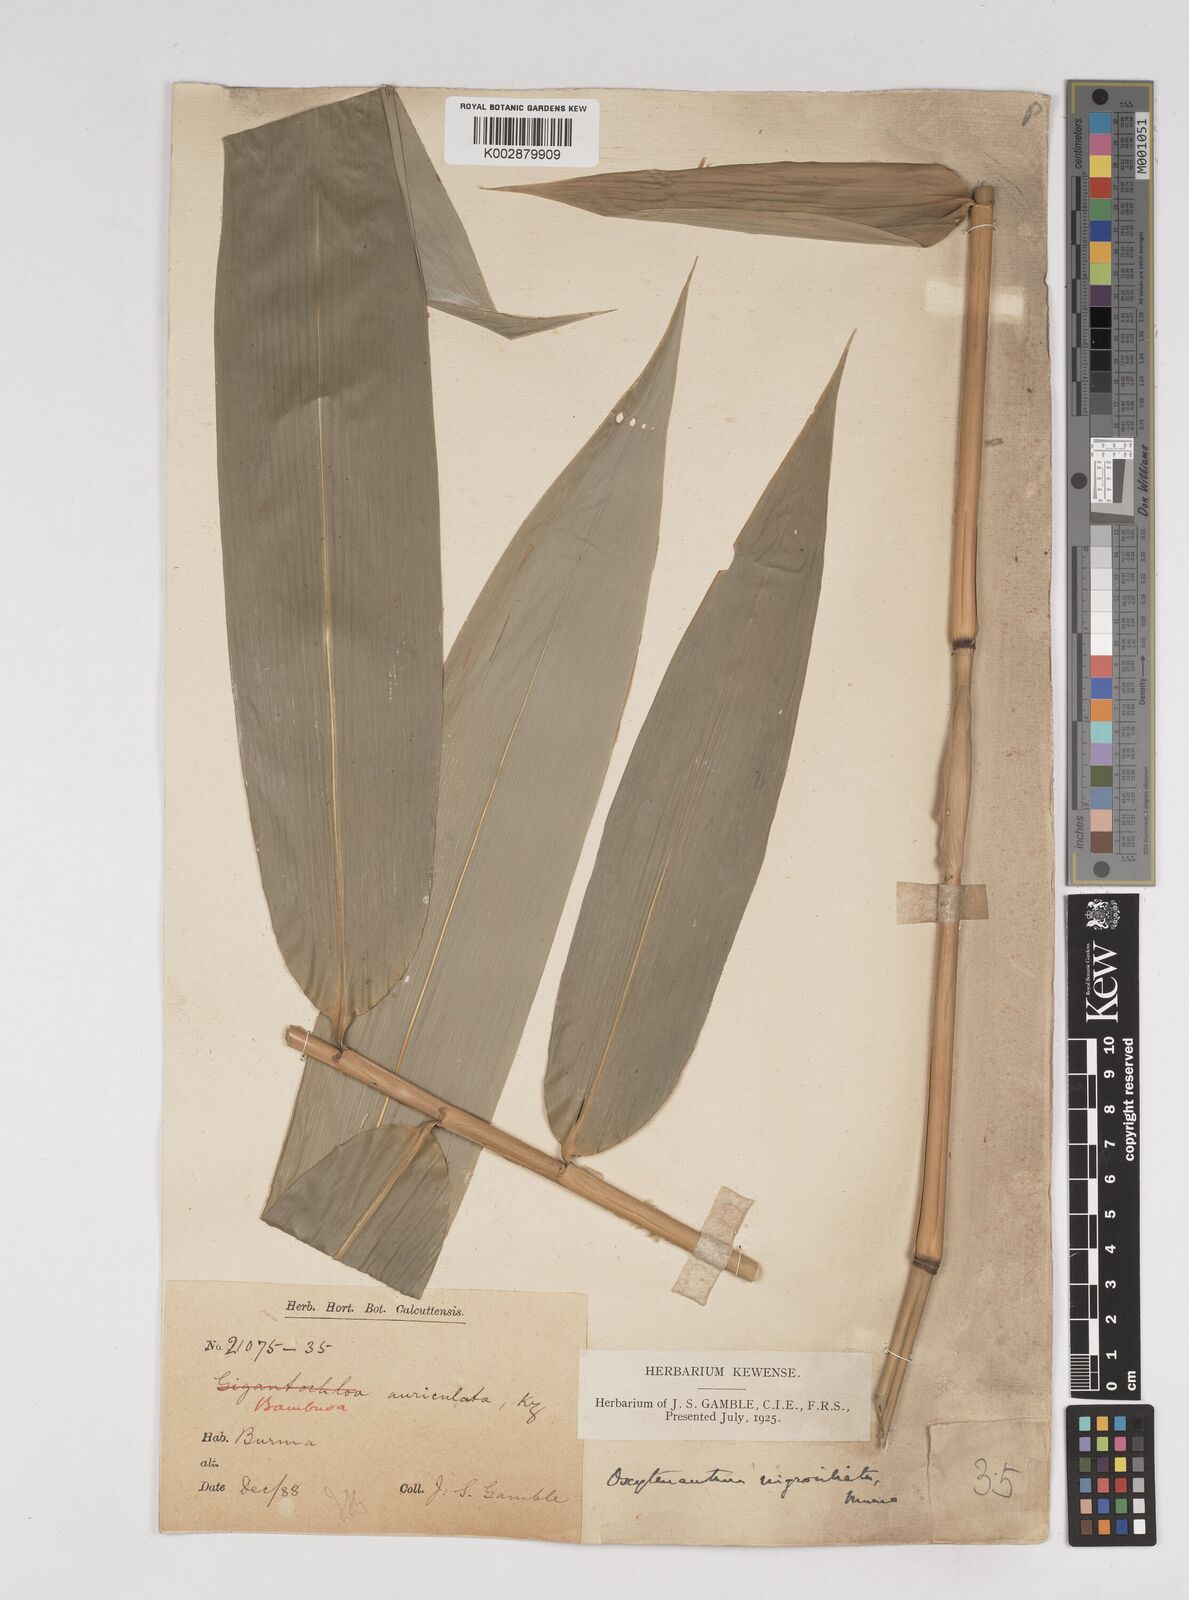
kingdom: Plantae
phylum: Tracheophyta
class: Liliopsida
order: Poales
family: Poaceae
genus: Gigantochloa
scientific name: Gigantochloa nigrociliata
